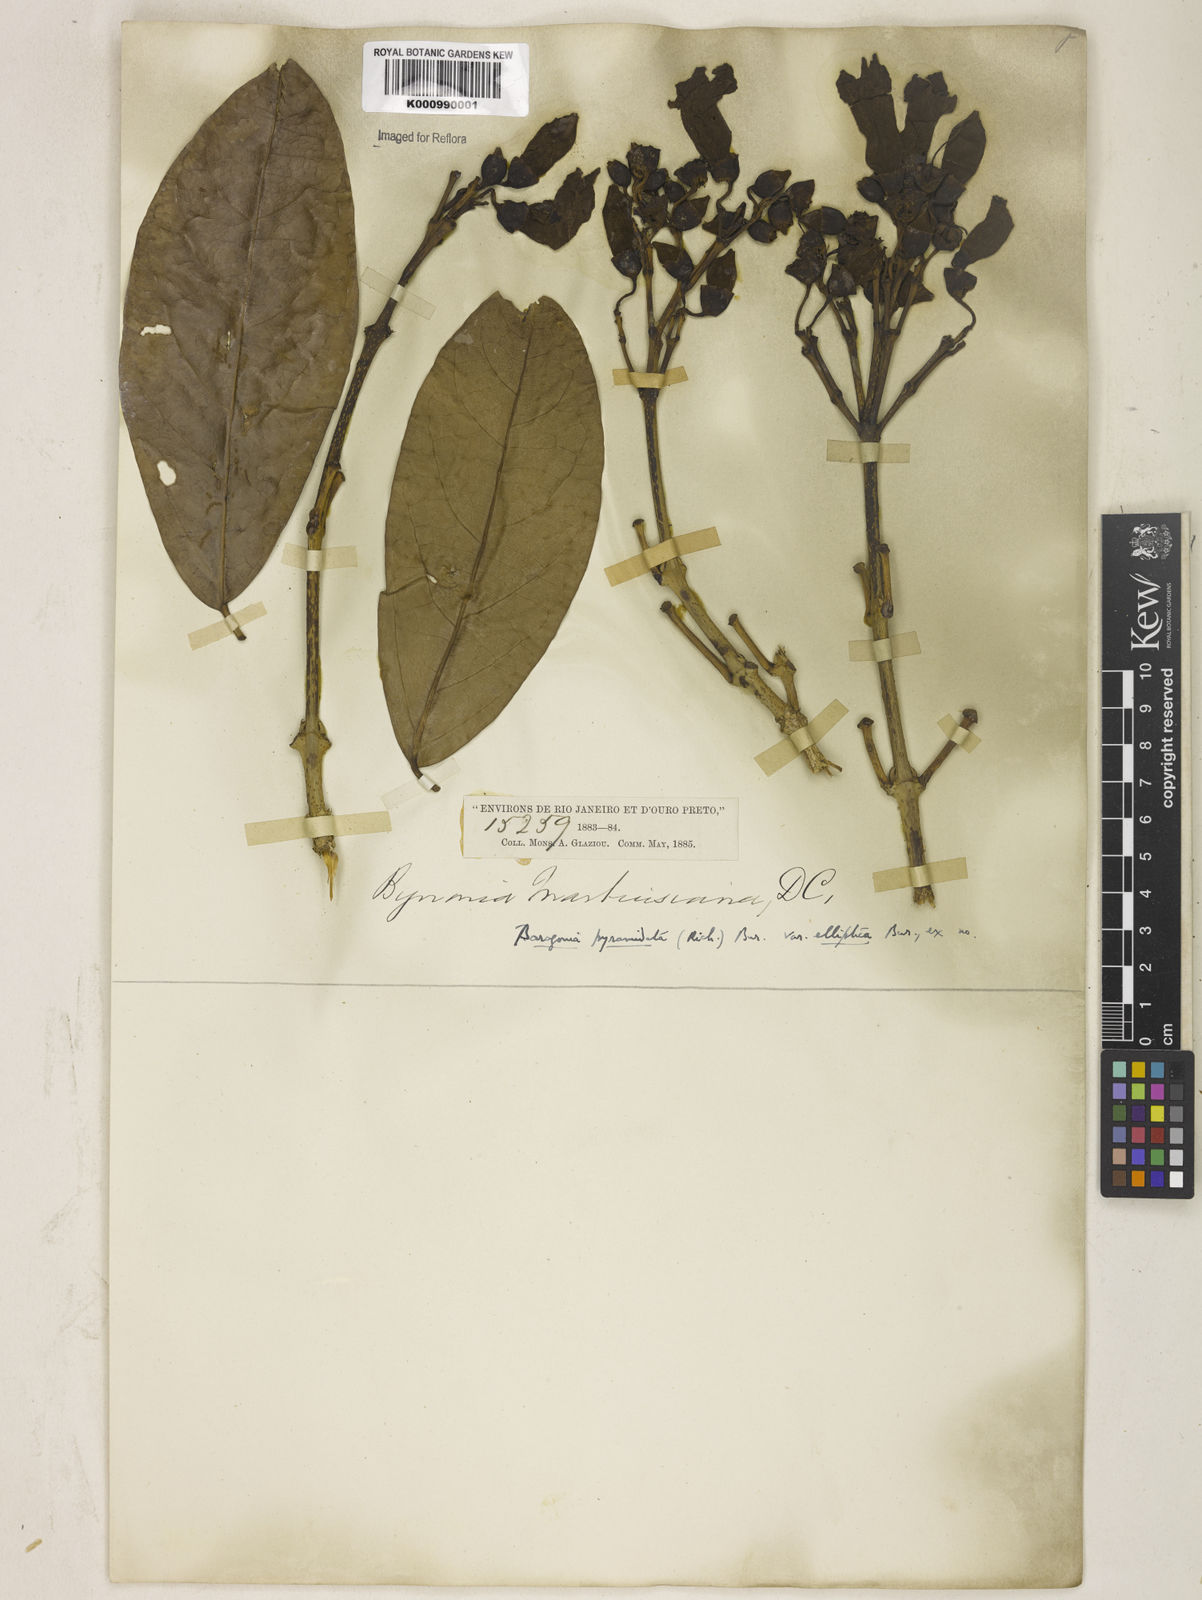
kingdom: Plantae
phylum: Tracheophyta
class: Magnoliopsida
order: Lamiales
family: Bignoniaceae
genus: Tanaecium
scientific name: Tanaecium pyramidatum
